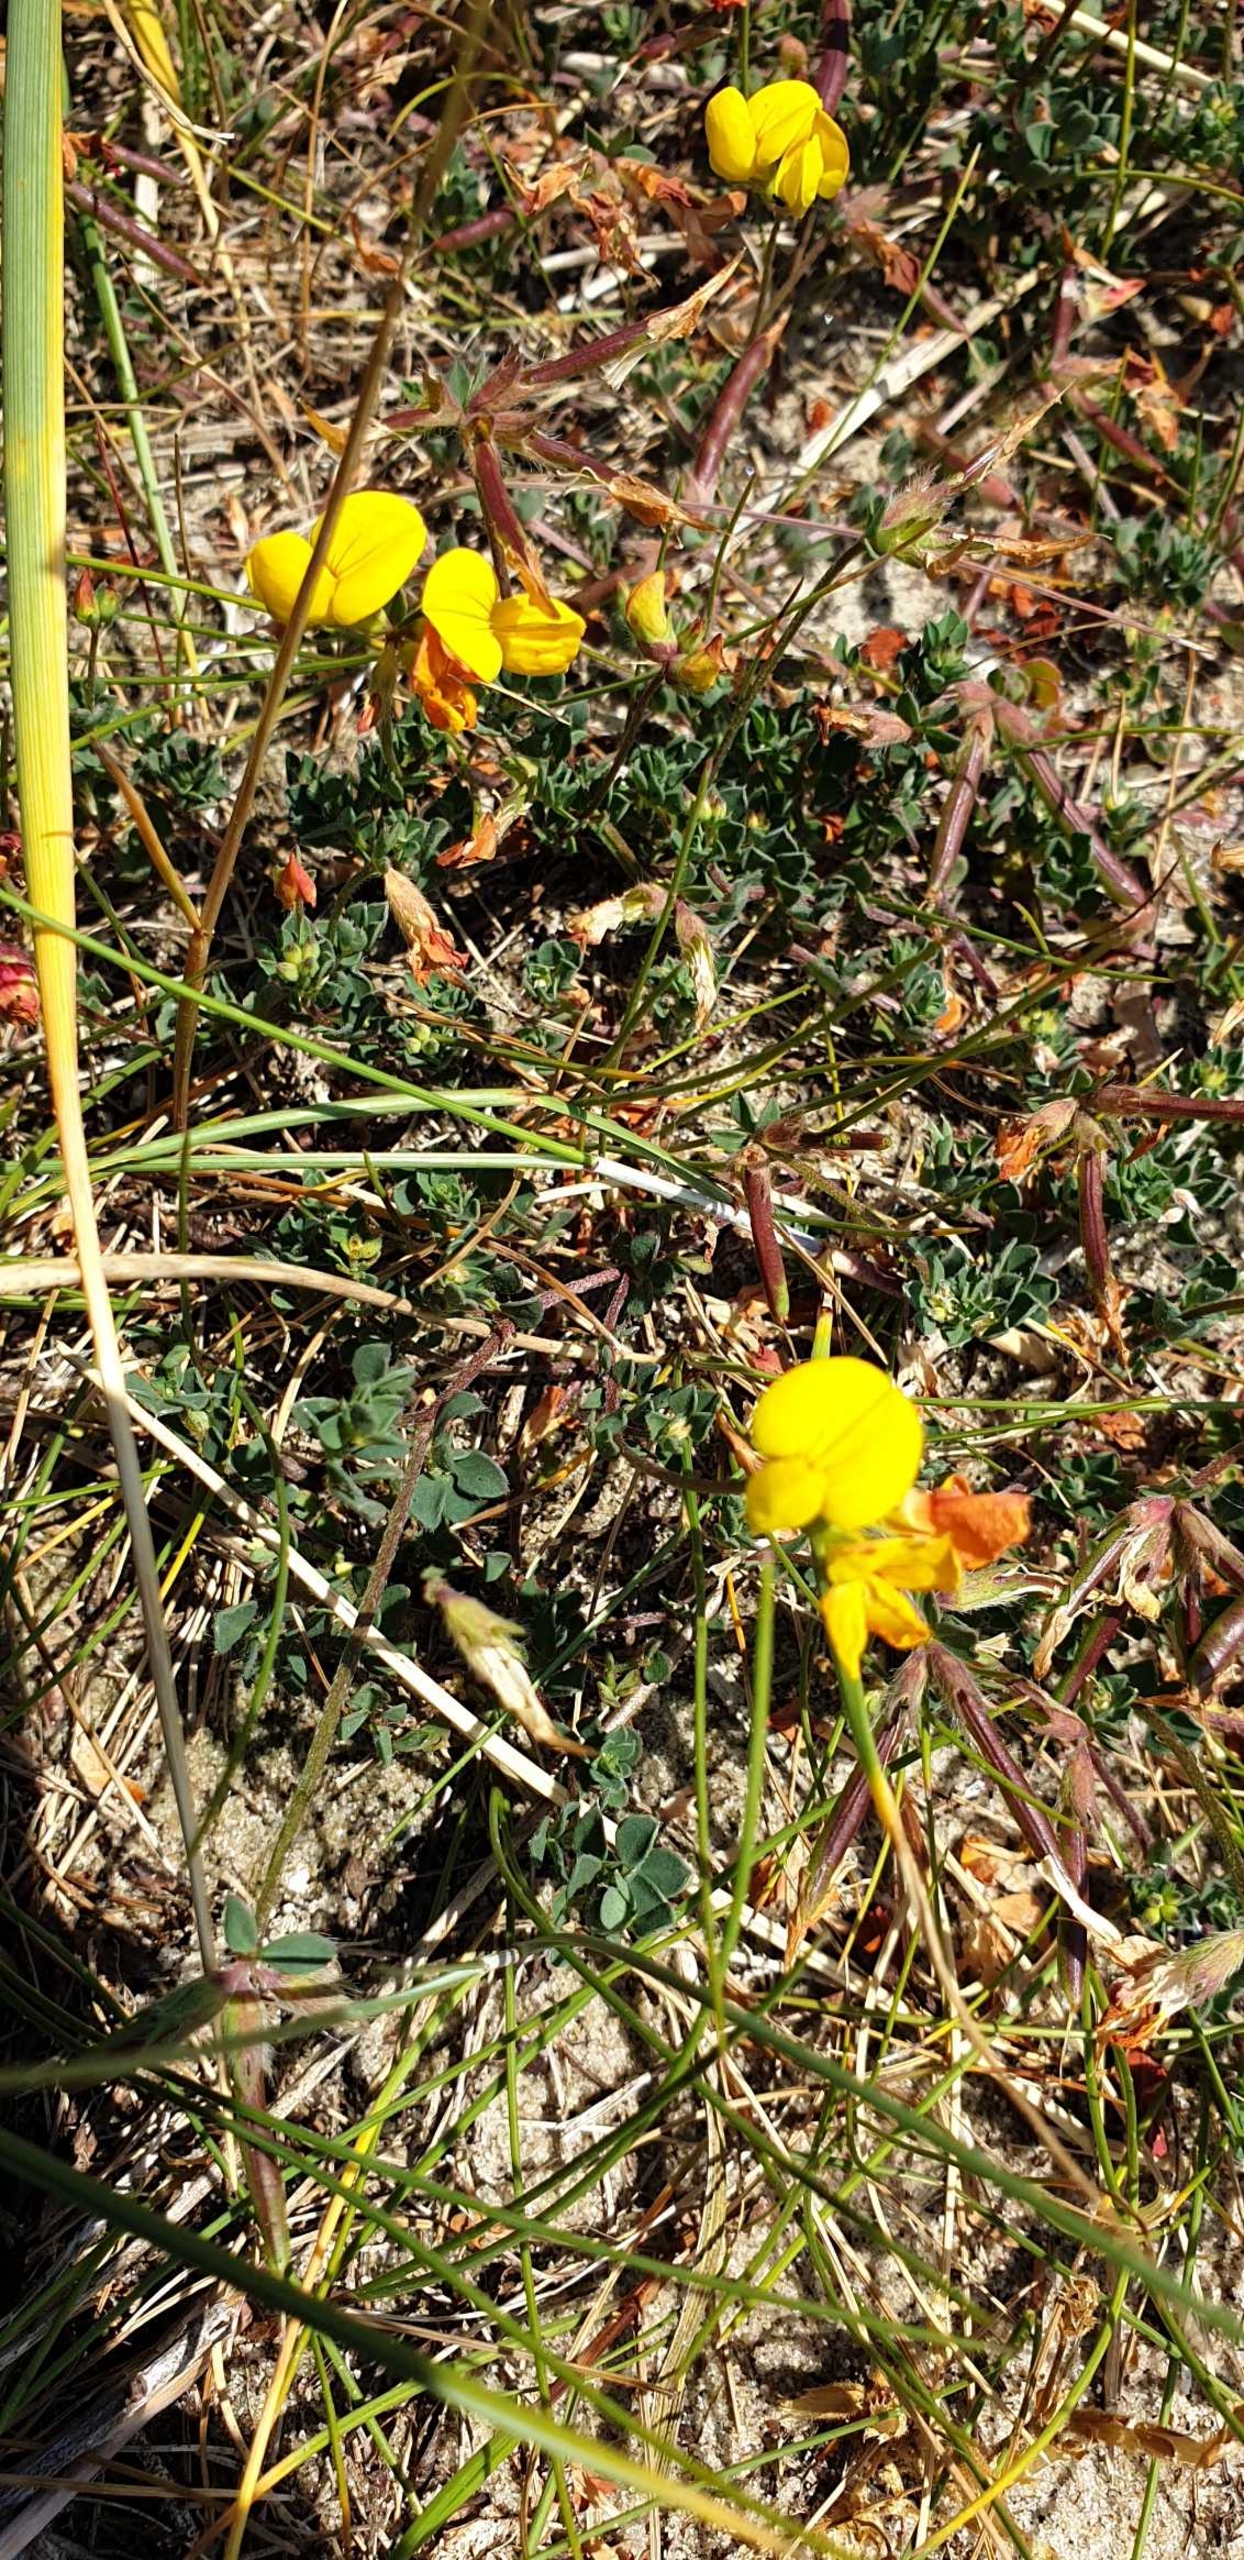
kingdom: Plantae
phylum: Tracheophyta
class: Magnoliopsida
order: Fabales
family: Fabaceae
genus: Lotus
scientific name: Lotus corniculatus
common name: Almindelig kællingetand
